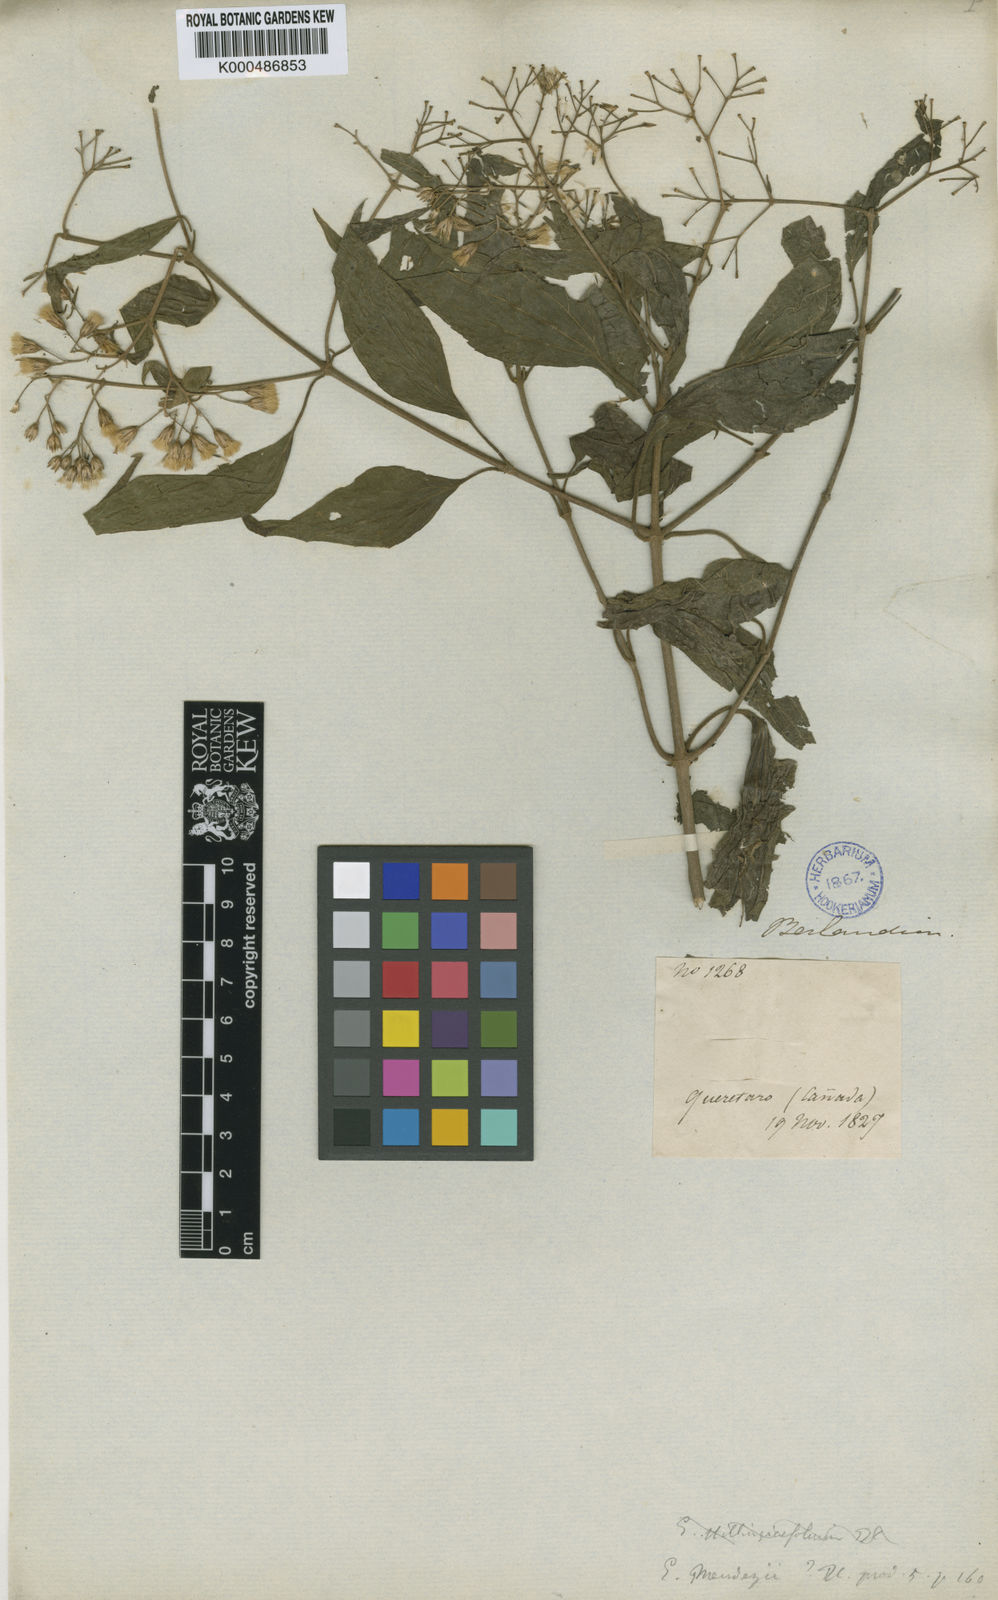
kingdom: Plantae
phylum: Tracheophyta
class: Magnoliopsida
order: Asterales
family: Asteraceae
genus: Chromolaena
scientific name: Chromolaena collina
